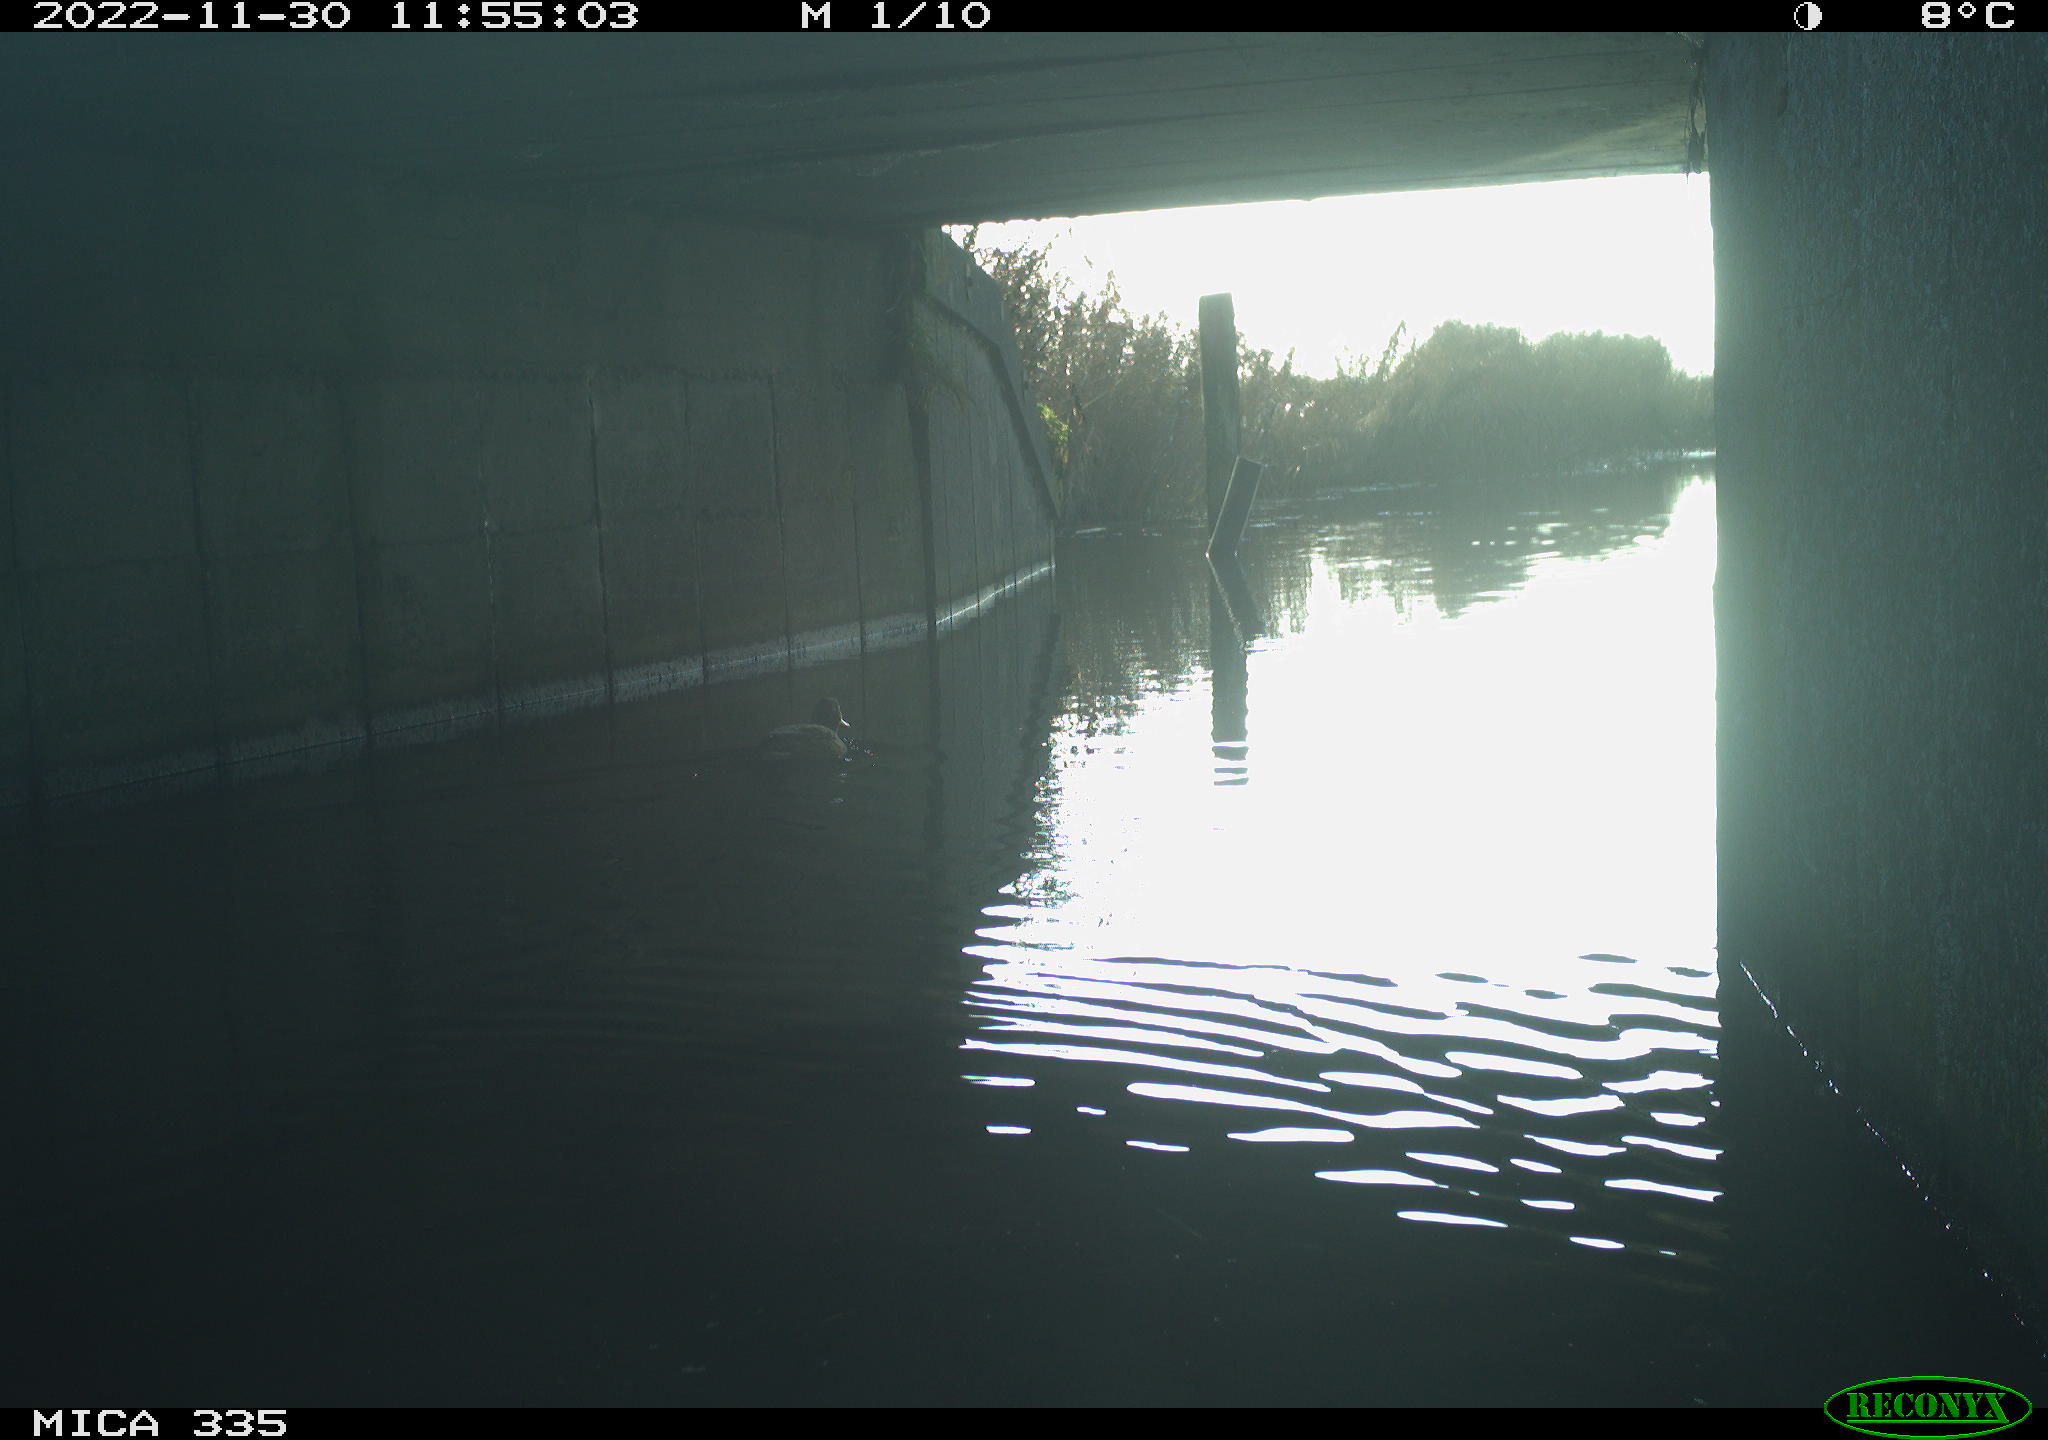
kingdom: Animalia
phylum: Chordata
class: Aves
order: Anseriformes
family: Anatidae
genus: Anas
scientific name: Anas
